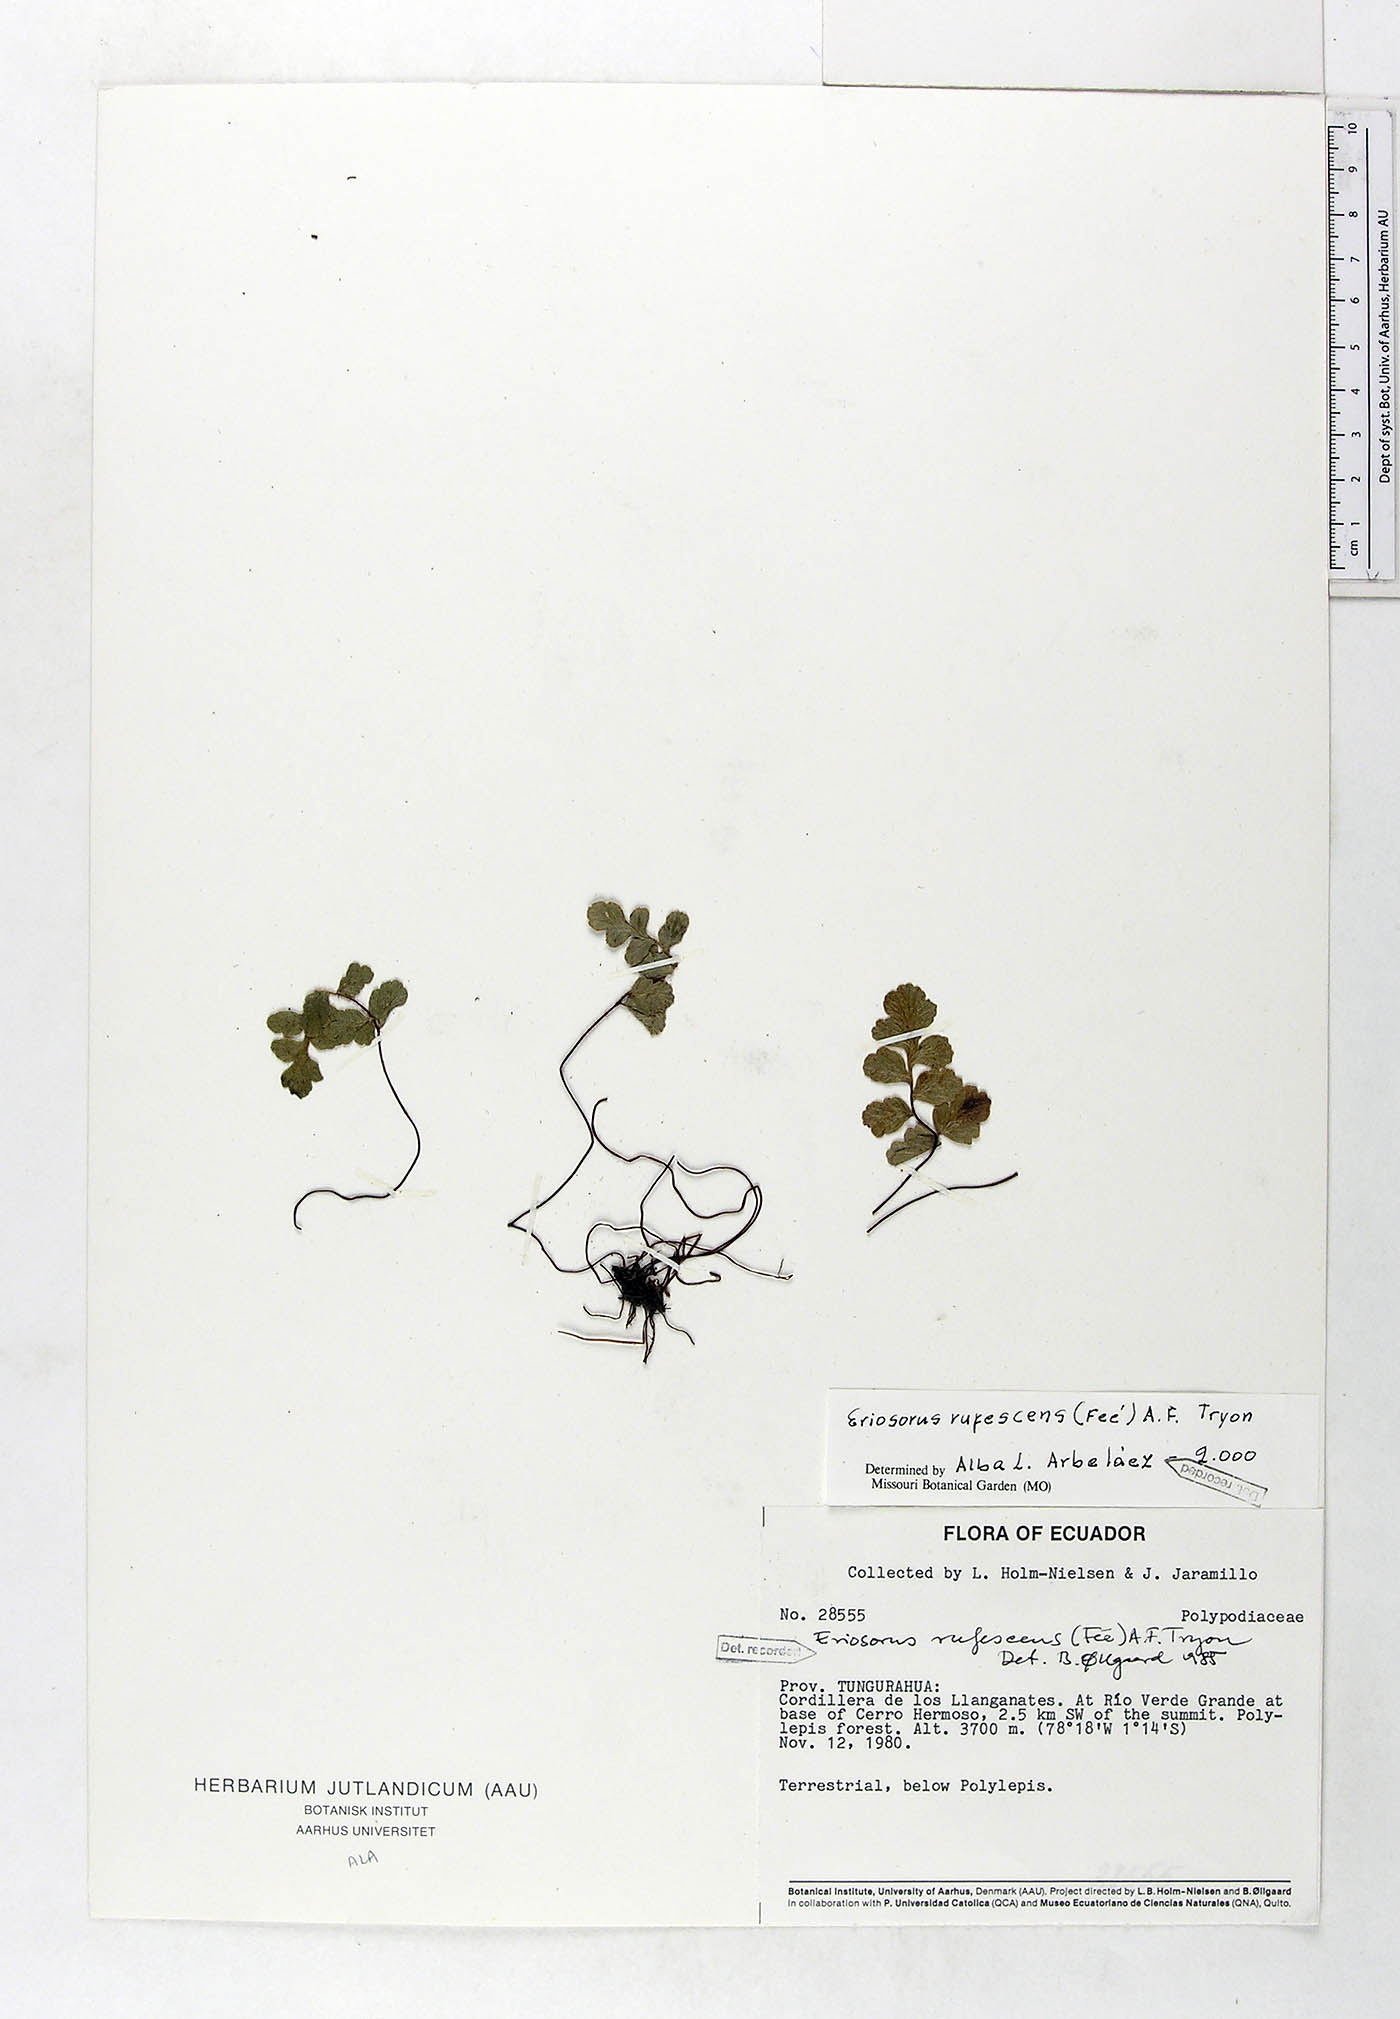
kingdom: Plantae
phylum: Tracheophyta
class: Polypodiopsida
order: Polypodiales
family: Pteridaceae
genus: Jamesonia
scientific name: Jamesonia rufescens
